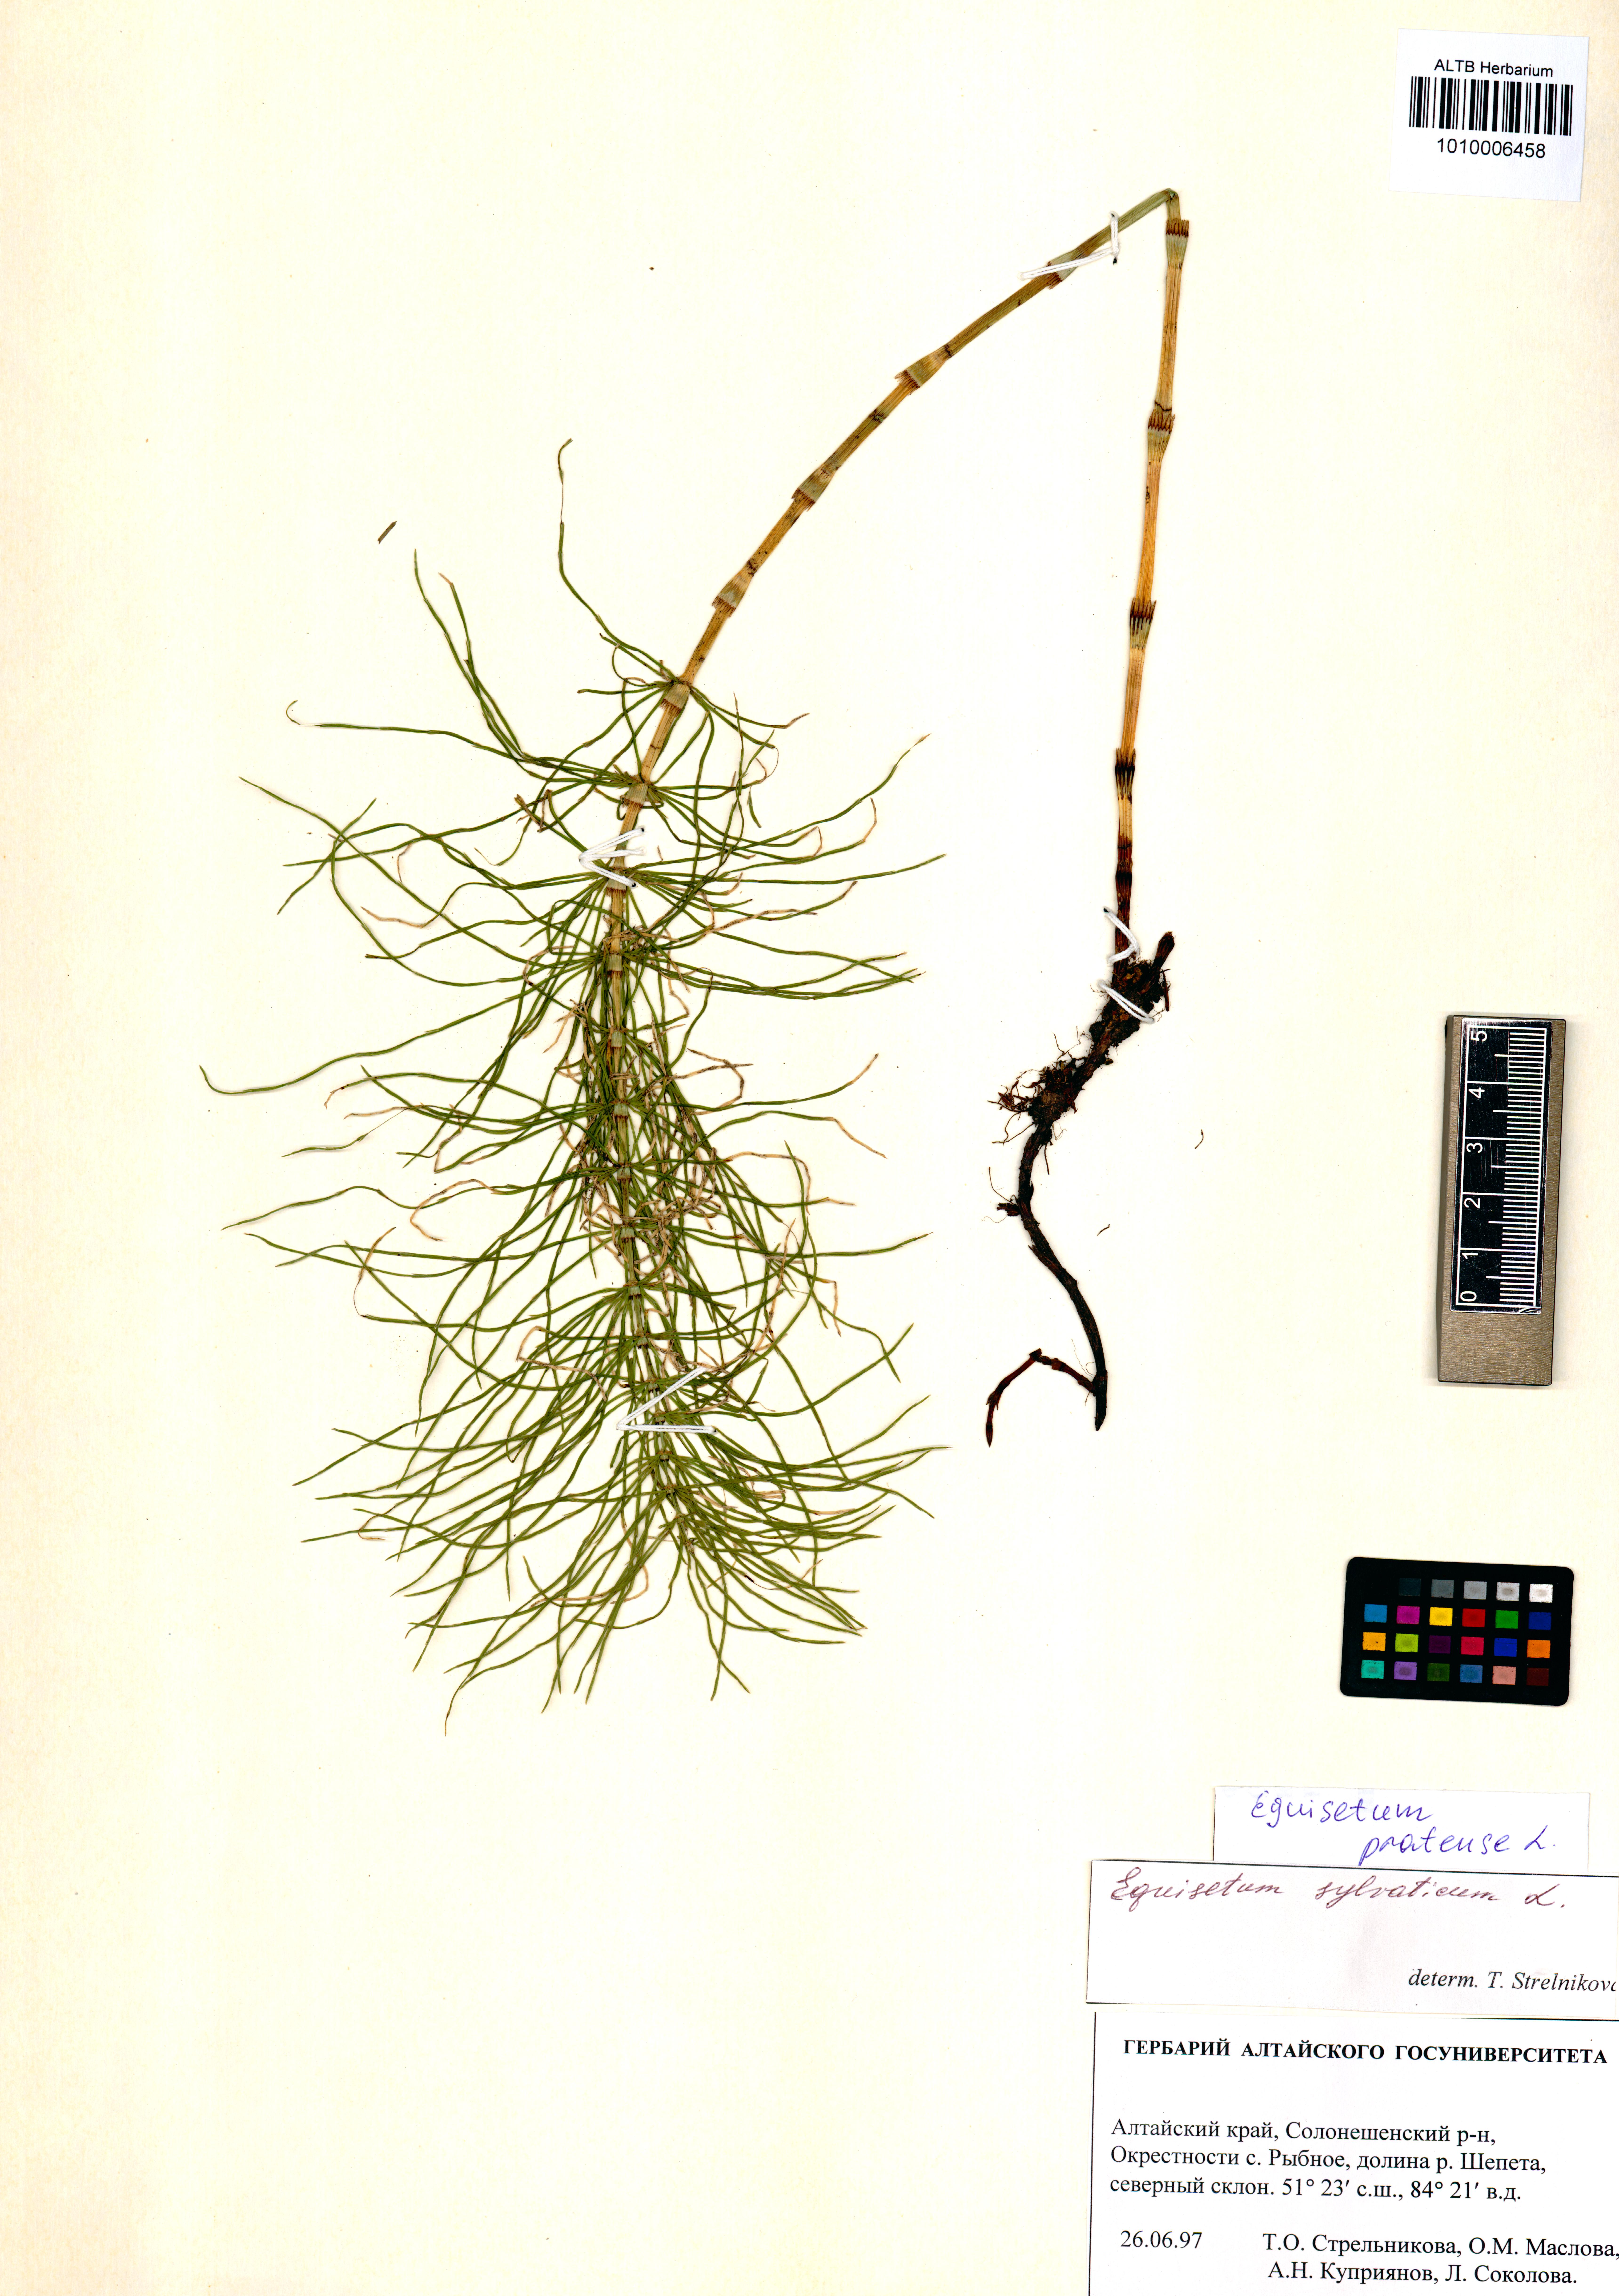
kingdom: Plantae
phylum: Tracheophyta
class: Polypodiopsida
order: Equisetales
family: Equisetaceae
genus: Equisetum
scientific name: Equisetum pratense
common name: Meadow horsetail
